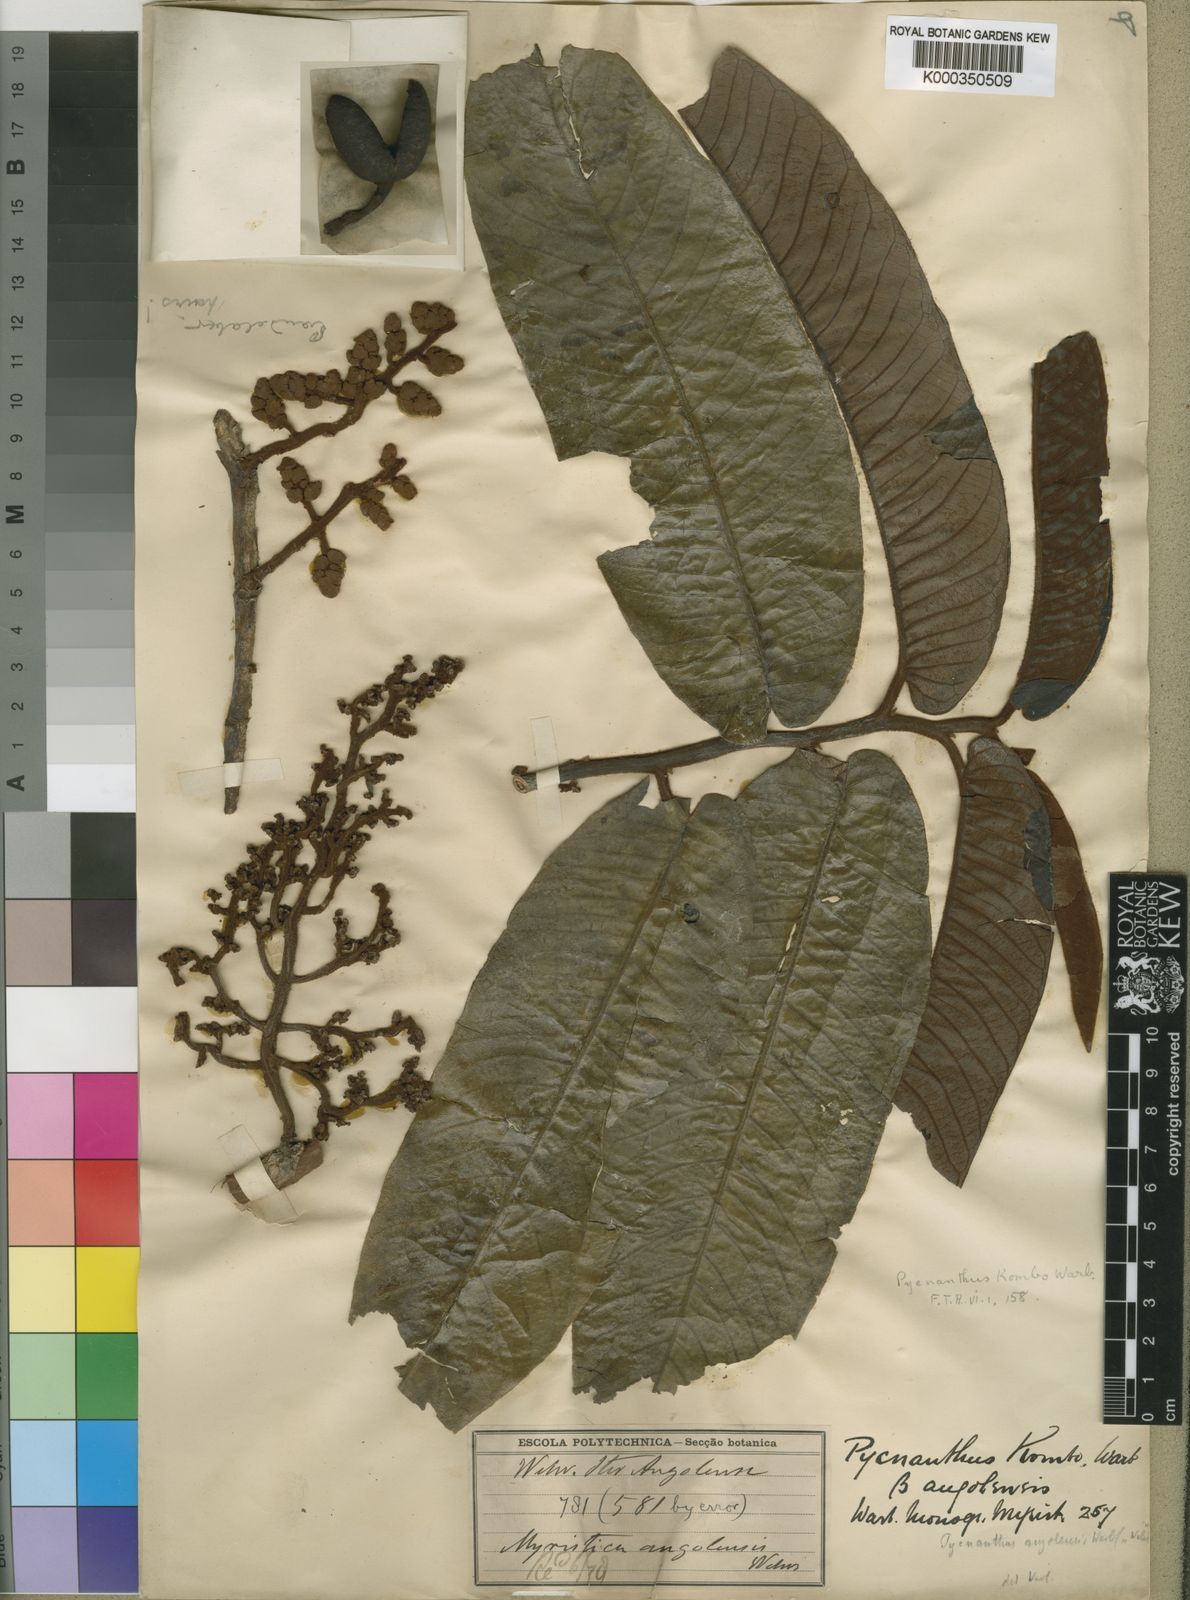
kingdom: Plantae
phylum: Tracheophyta
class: Magnoliopsida
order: Magnoliales
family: Myristicaceae
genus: Pycnanthus
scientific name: Pycnanthus angolensis
